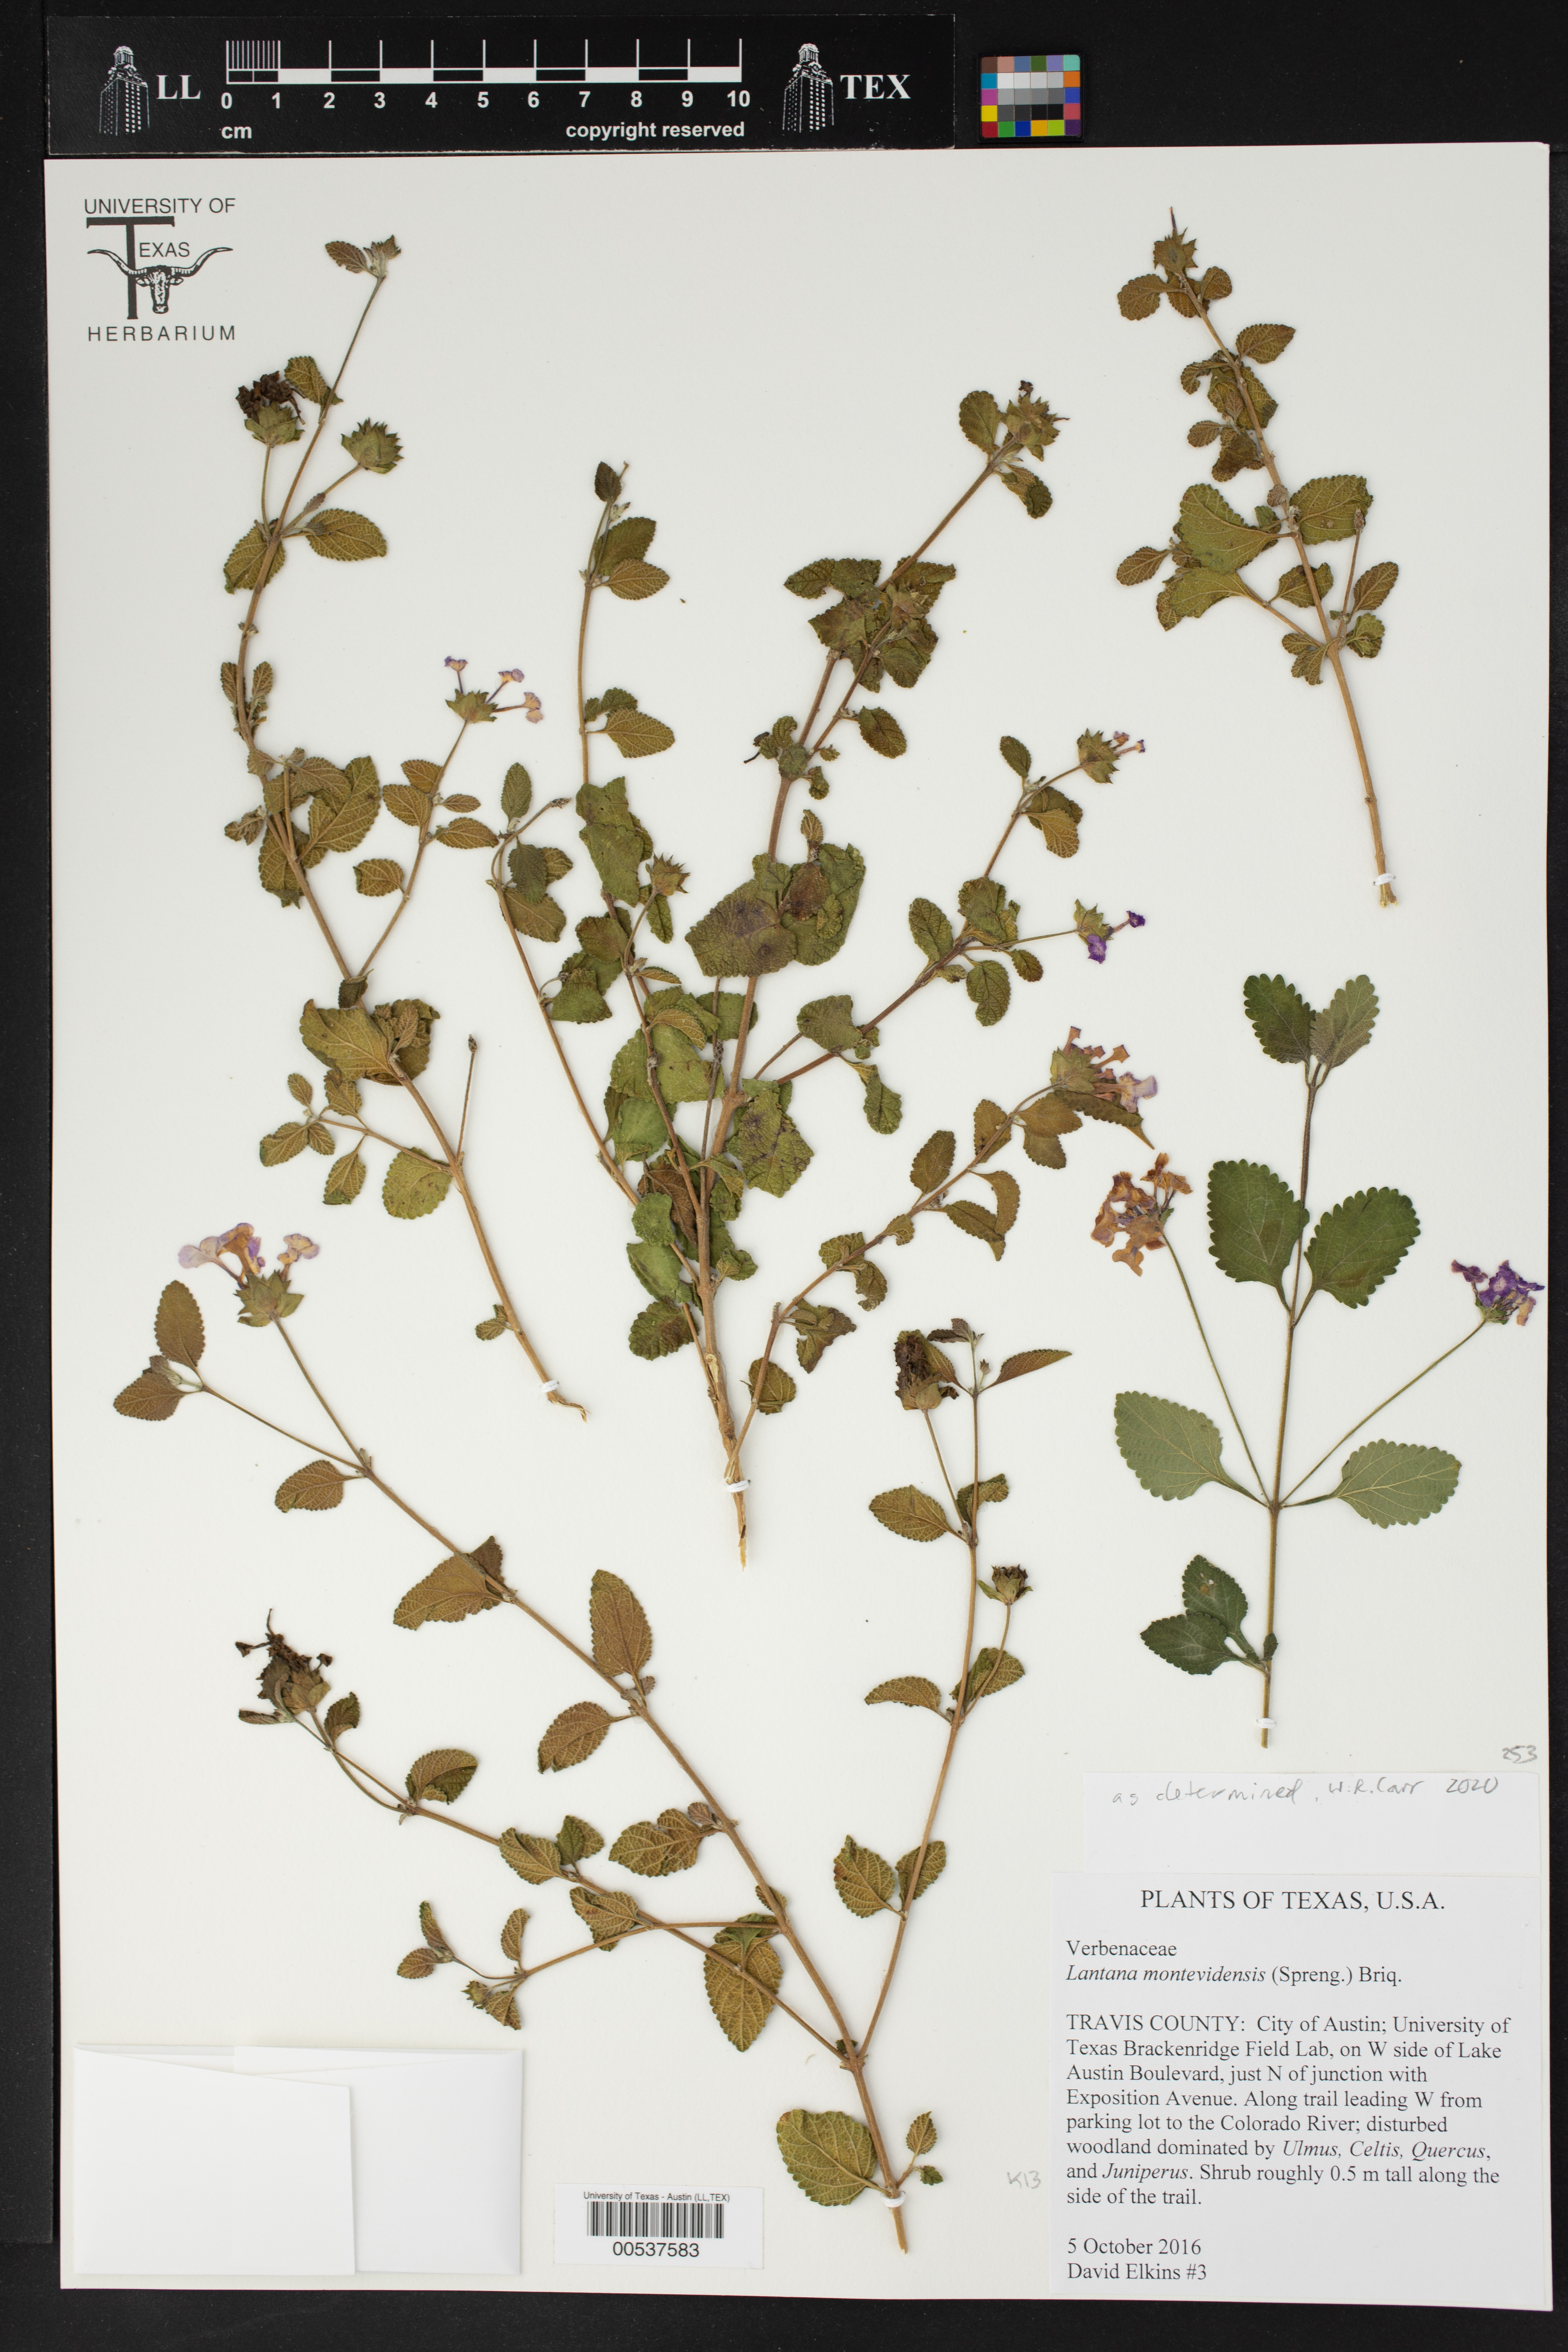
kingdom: Plantae
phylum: Tracheophyta
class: Magnoliopsida
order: Lamiales
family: Verbenaceae
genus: Lantana
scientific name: Lantana montevidensis
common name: Trailing shrubverbena
